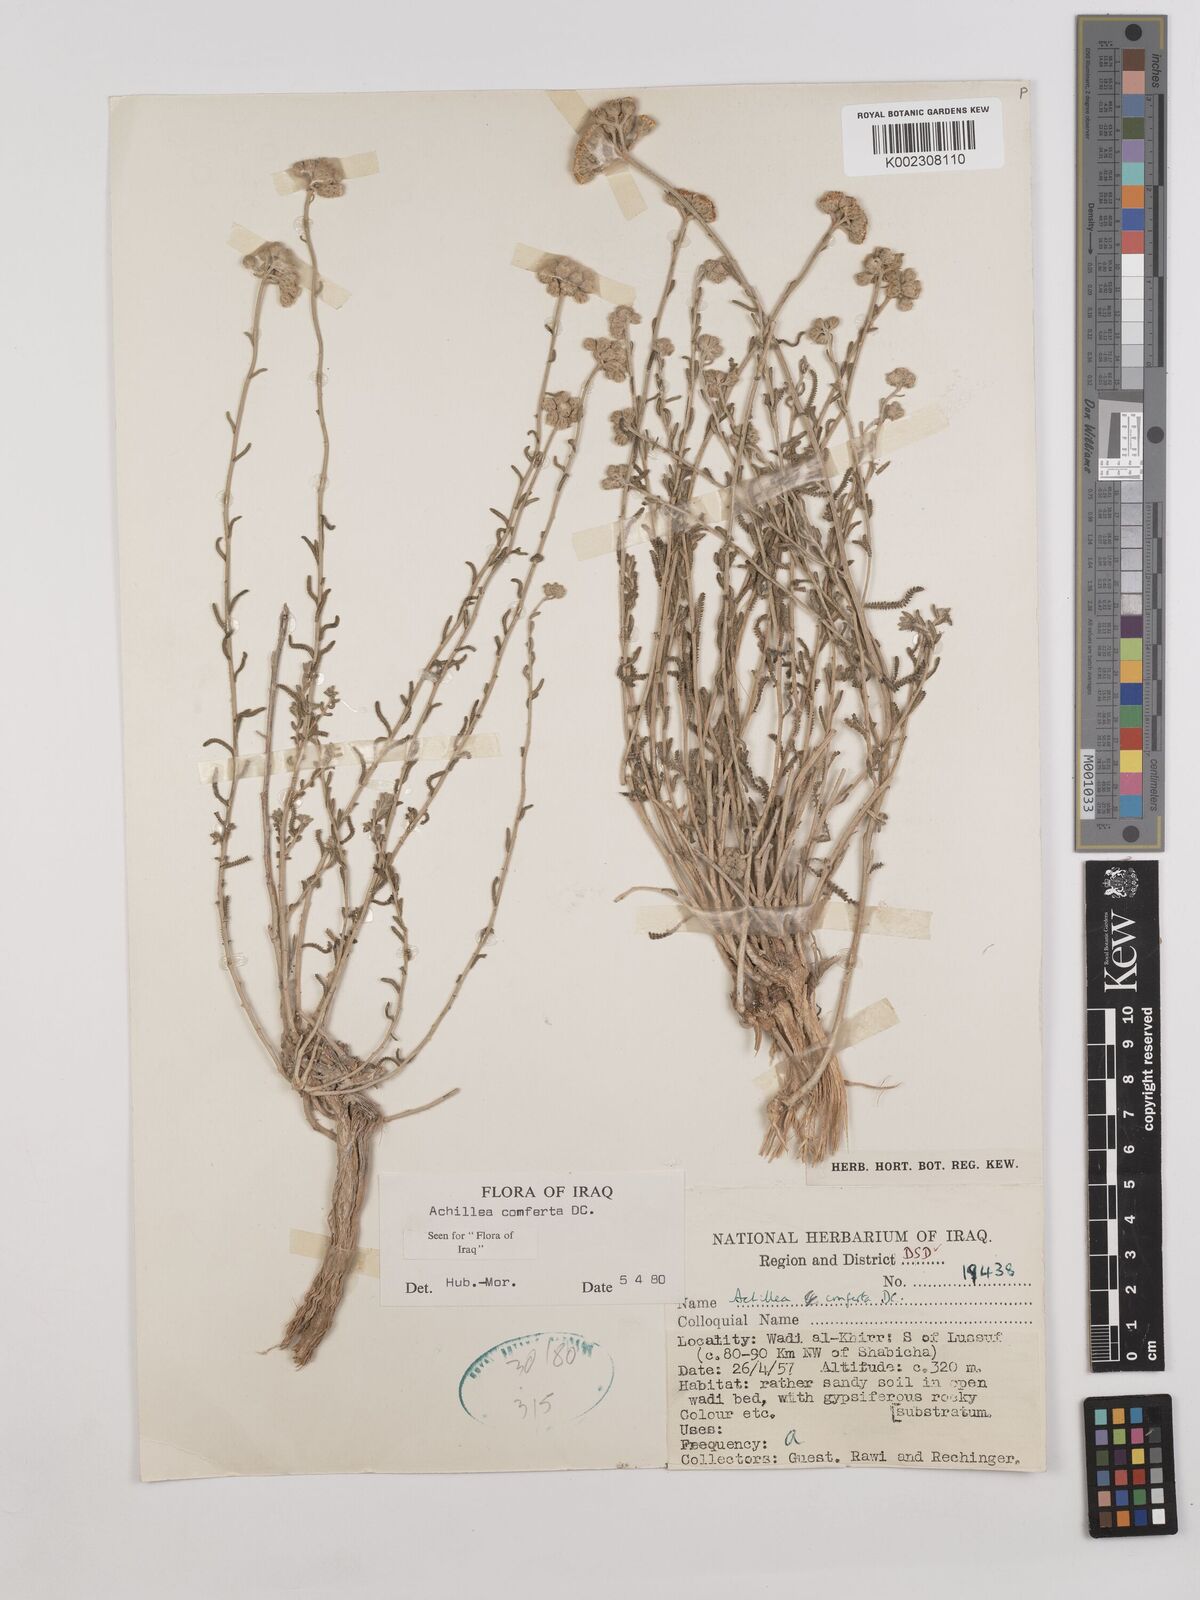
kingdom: Plantae
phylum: Tracheophyta
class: Magnoliopsida
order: Asterales
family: Asteraceae
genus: Achillea
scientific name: Achillea conferta
